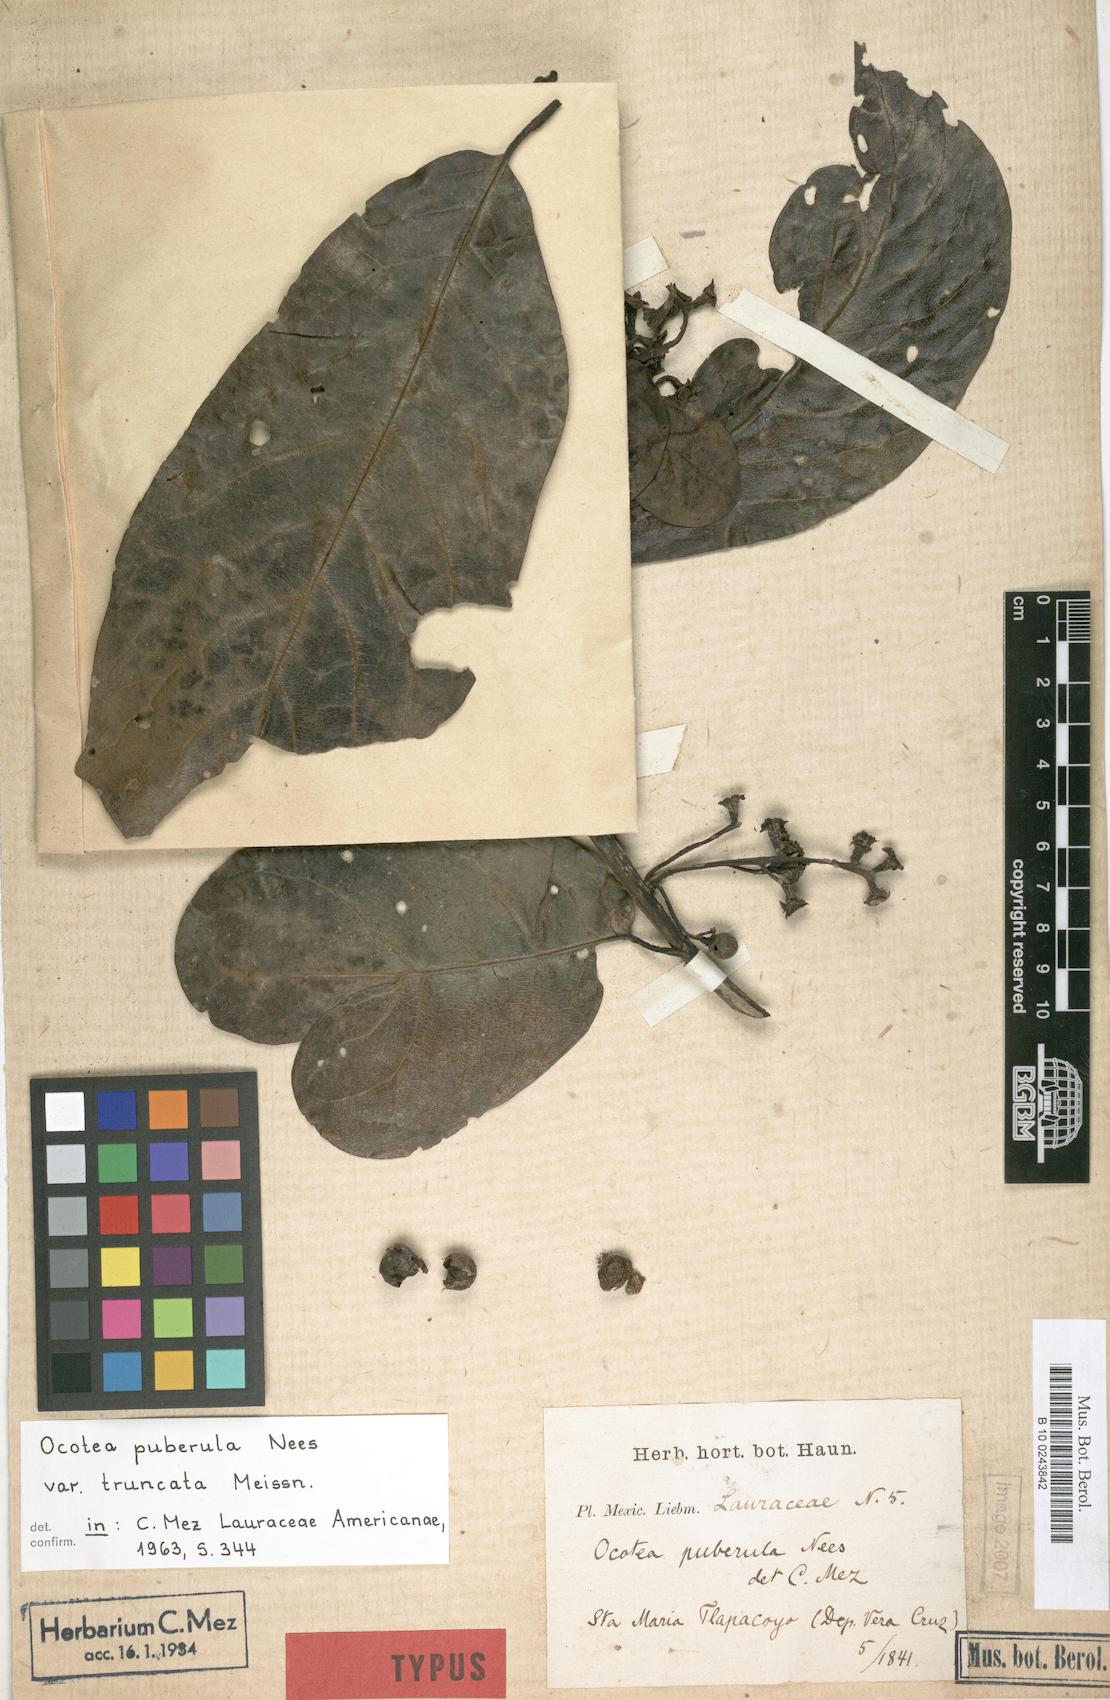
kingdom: Plantae
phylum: Tracheophyta
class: Magnoliopsida
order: Laurales
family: Lauraceae
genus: Ocotea
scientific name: Ocotea puberula
